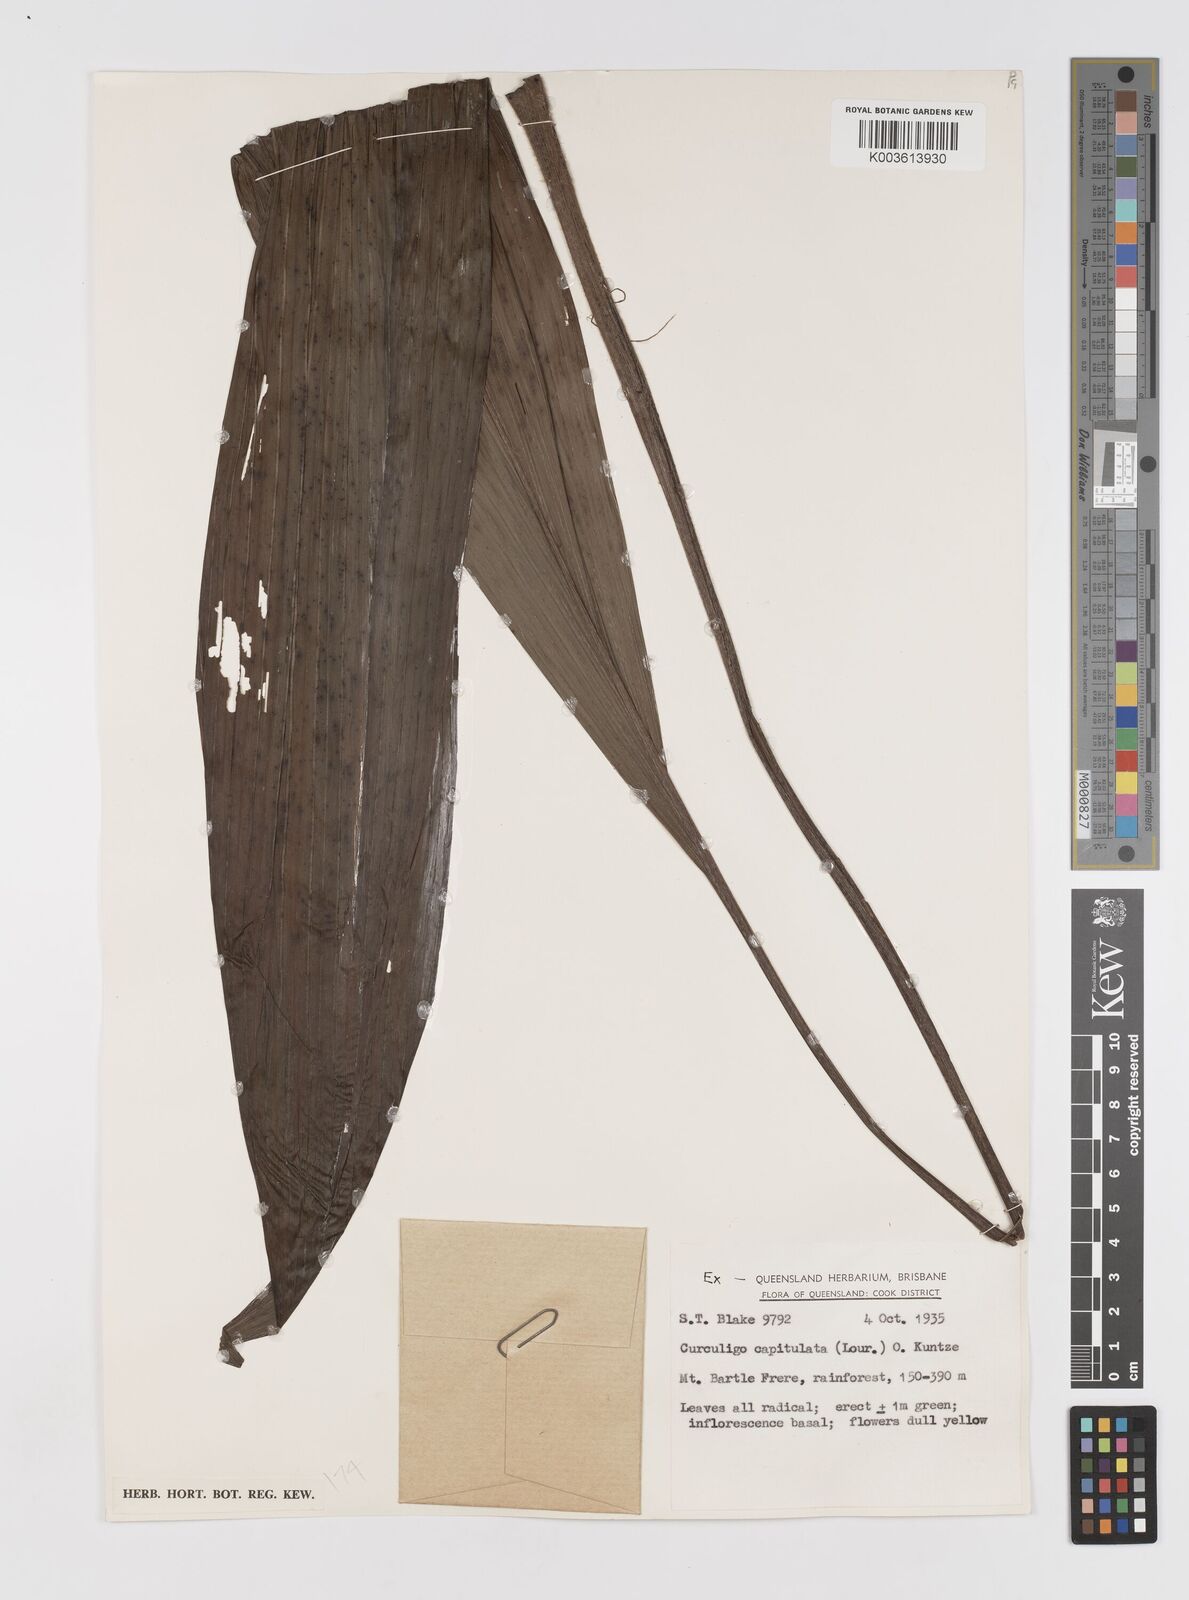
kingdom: Plantae
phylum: Tracheophyta
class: Liliopsida
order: Asparagales
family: Hypoxidaceae
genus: Curculigo
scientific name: Curculigo capitulata
